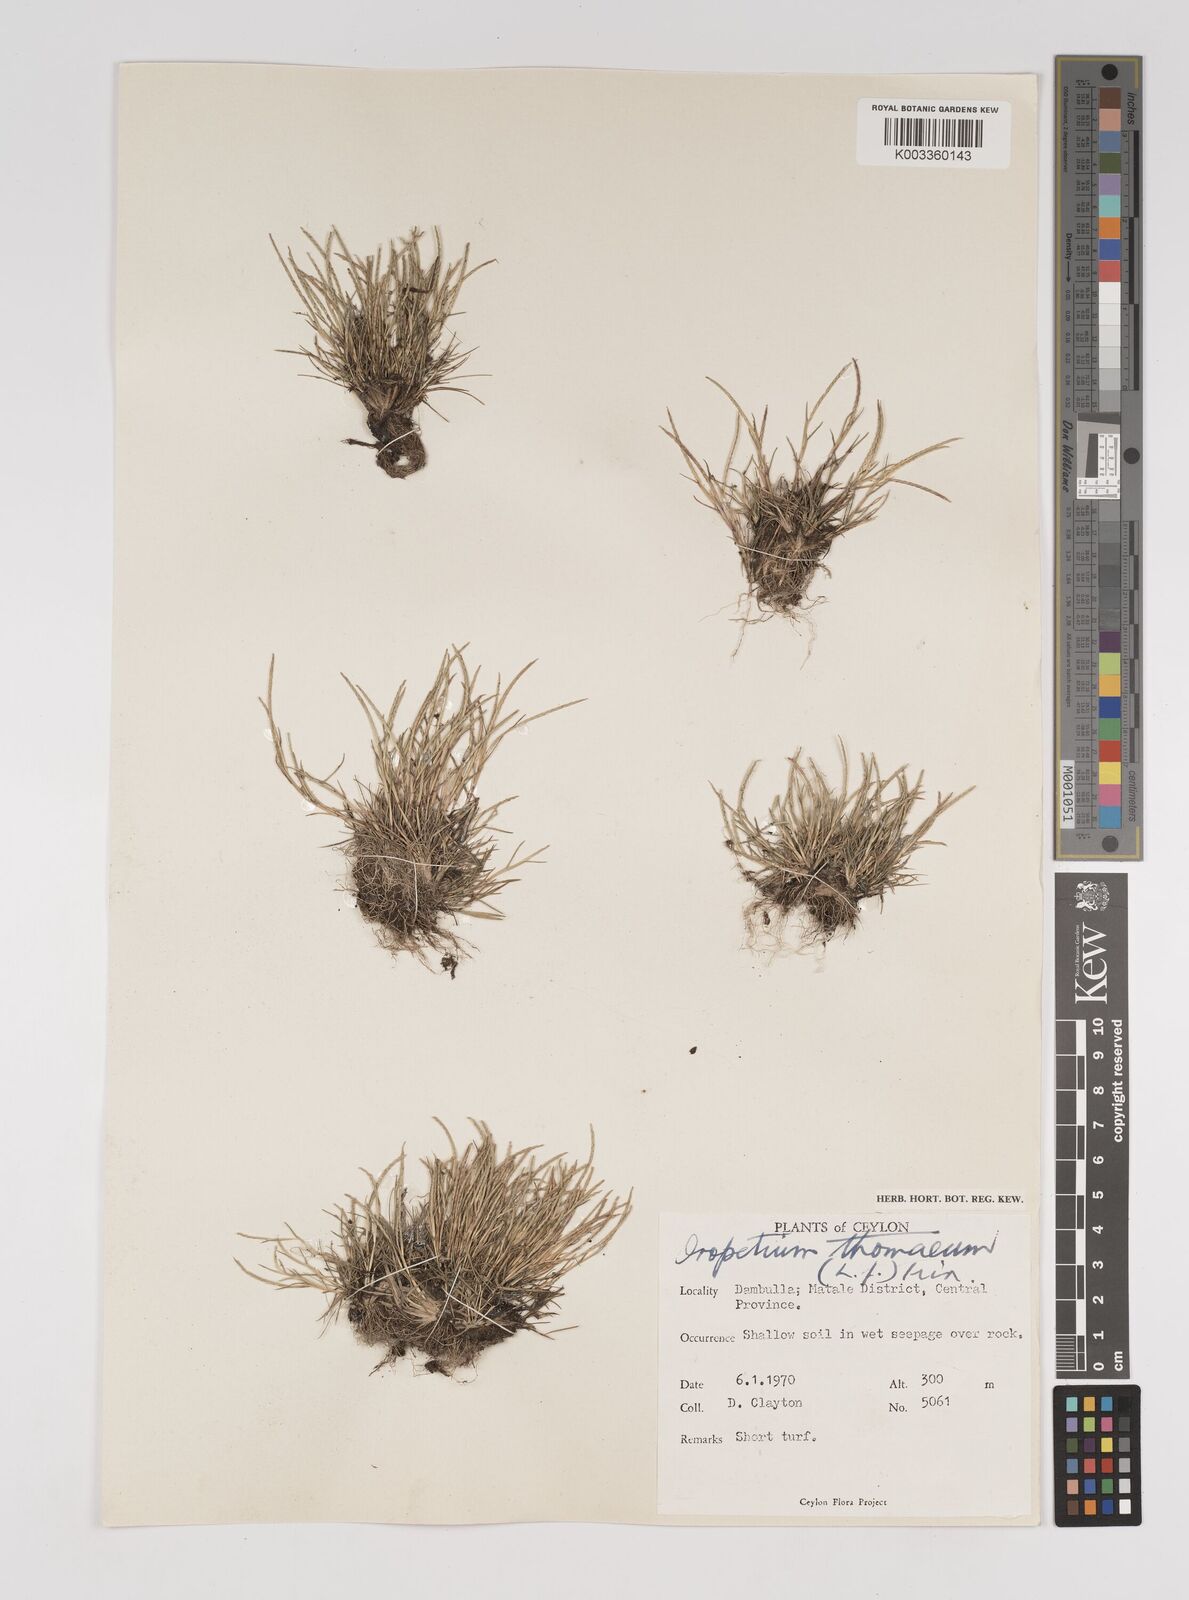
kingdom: Plantae
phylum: Tracheophyta
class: Liliopsida
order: Poales
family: Poaceae
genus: Oropetium
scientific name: Oropetium thomaeum
